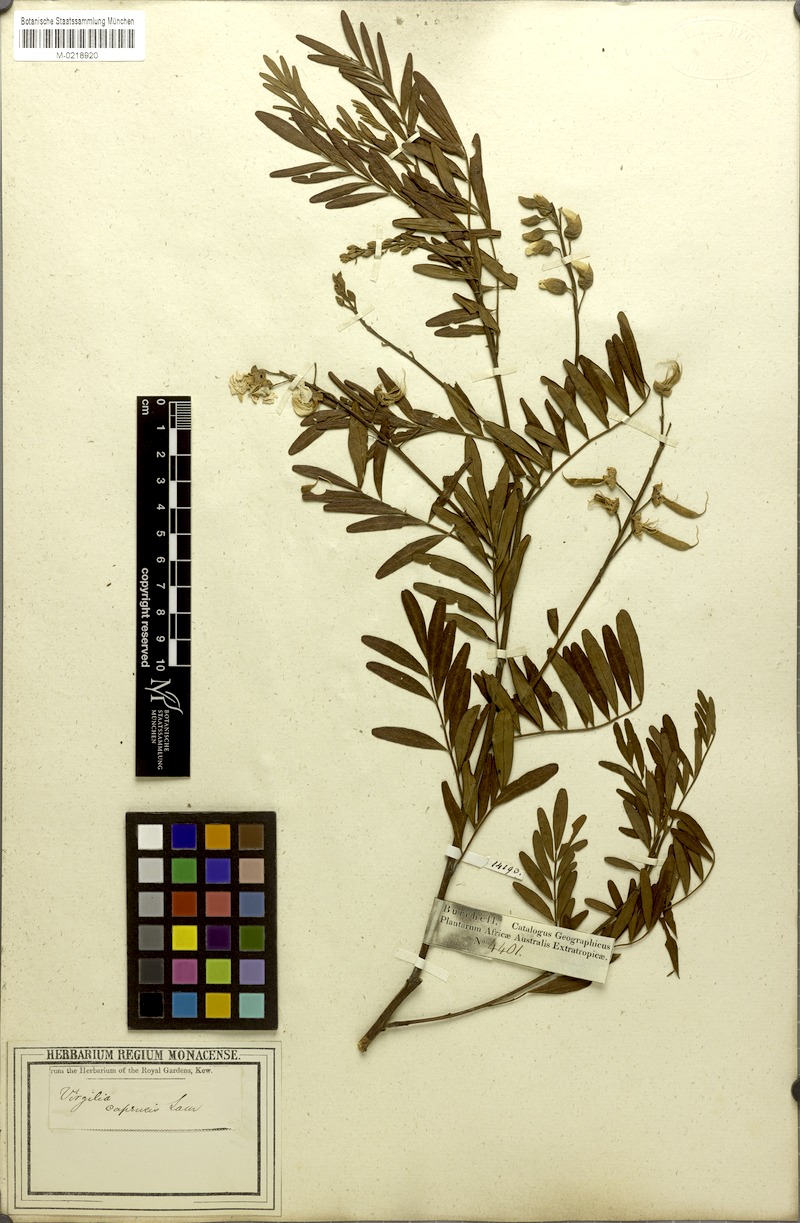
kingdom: Plantae
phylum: Tracheophyta
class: Magnoliopsida
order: Fabales
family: Fabaceae
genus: Virgilia
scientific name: Virgilia oroboides
